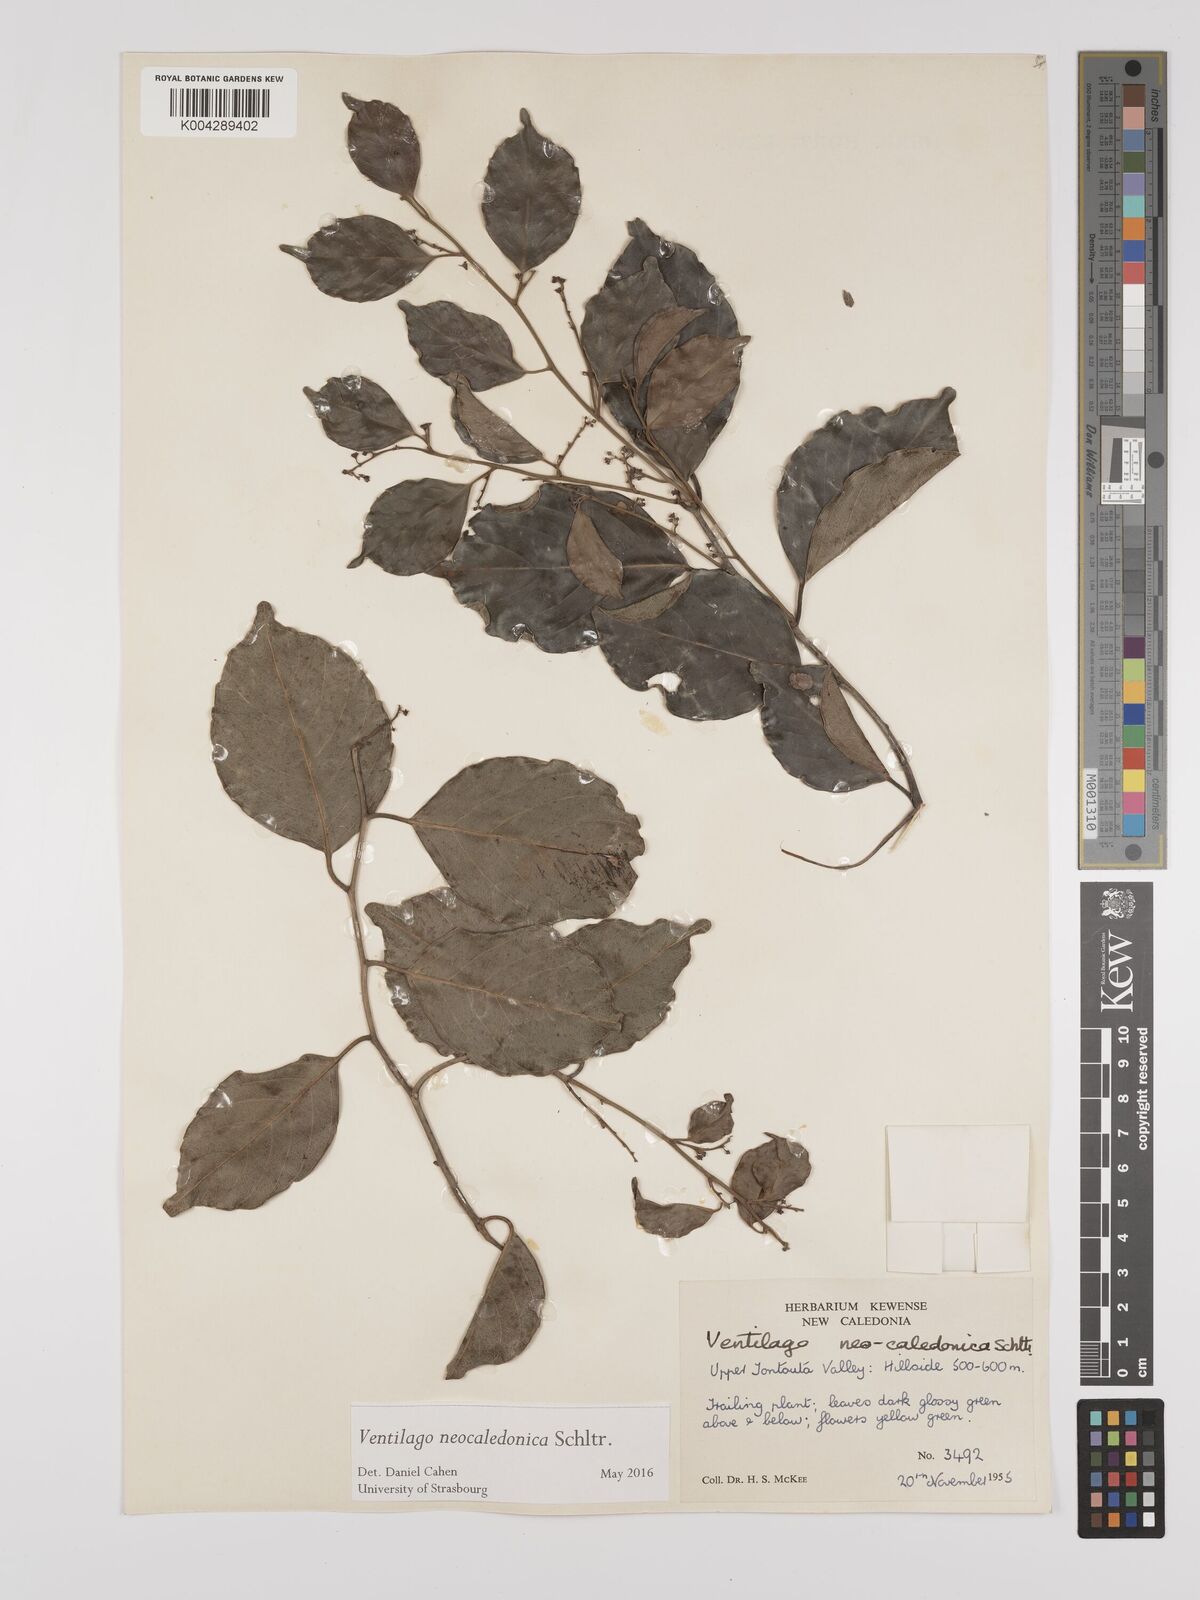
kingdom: Plantae
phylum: Tracheophyta
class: Magnoliopsida
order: Rosales
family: Rhamnaceae
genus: Ventilago
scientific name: Ventilago neocaledonica
